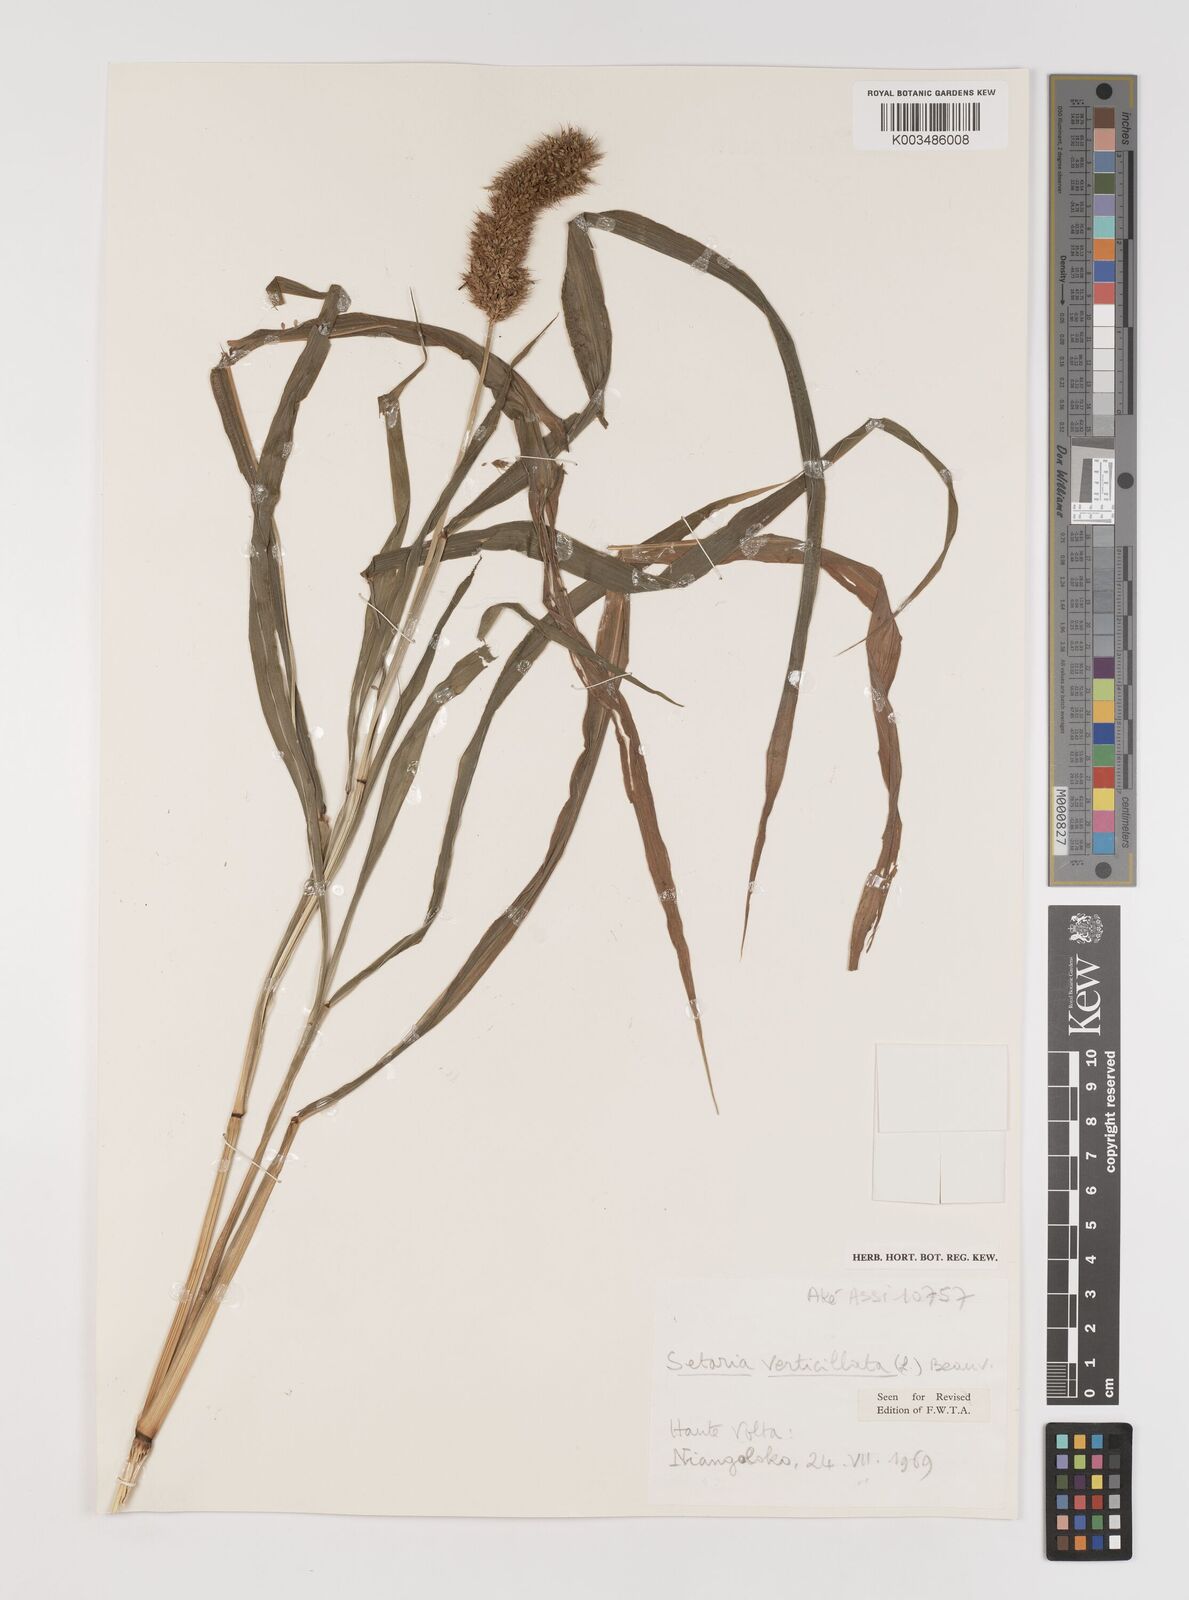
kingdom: Plantae
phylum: Tracheophyta
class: Liliopsida
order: Poales
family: Poaceae
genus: Setaria
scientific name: Setaria verticillata
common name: Hooked bristlegrass
